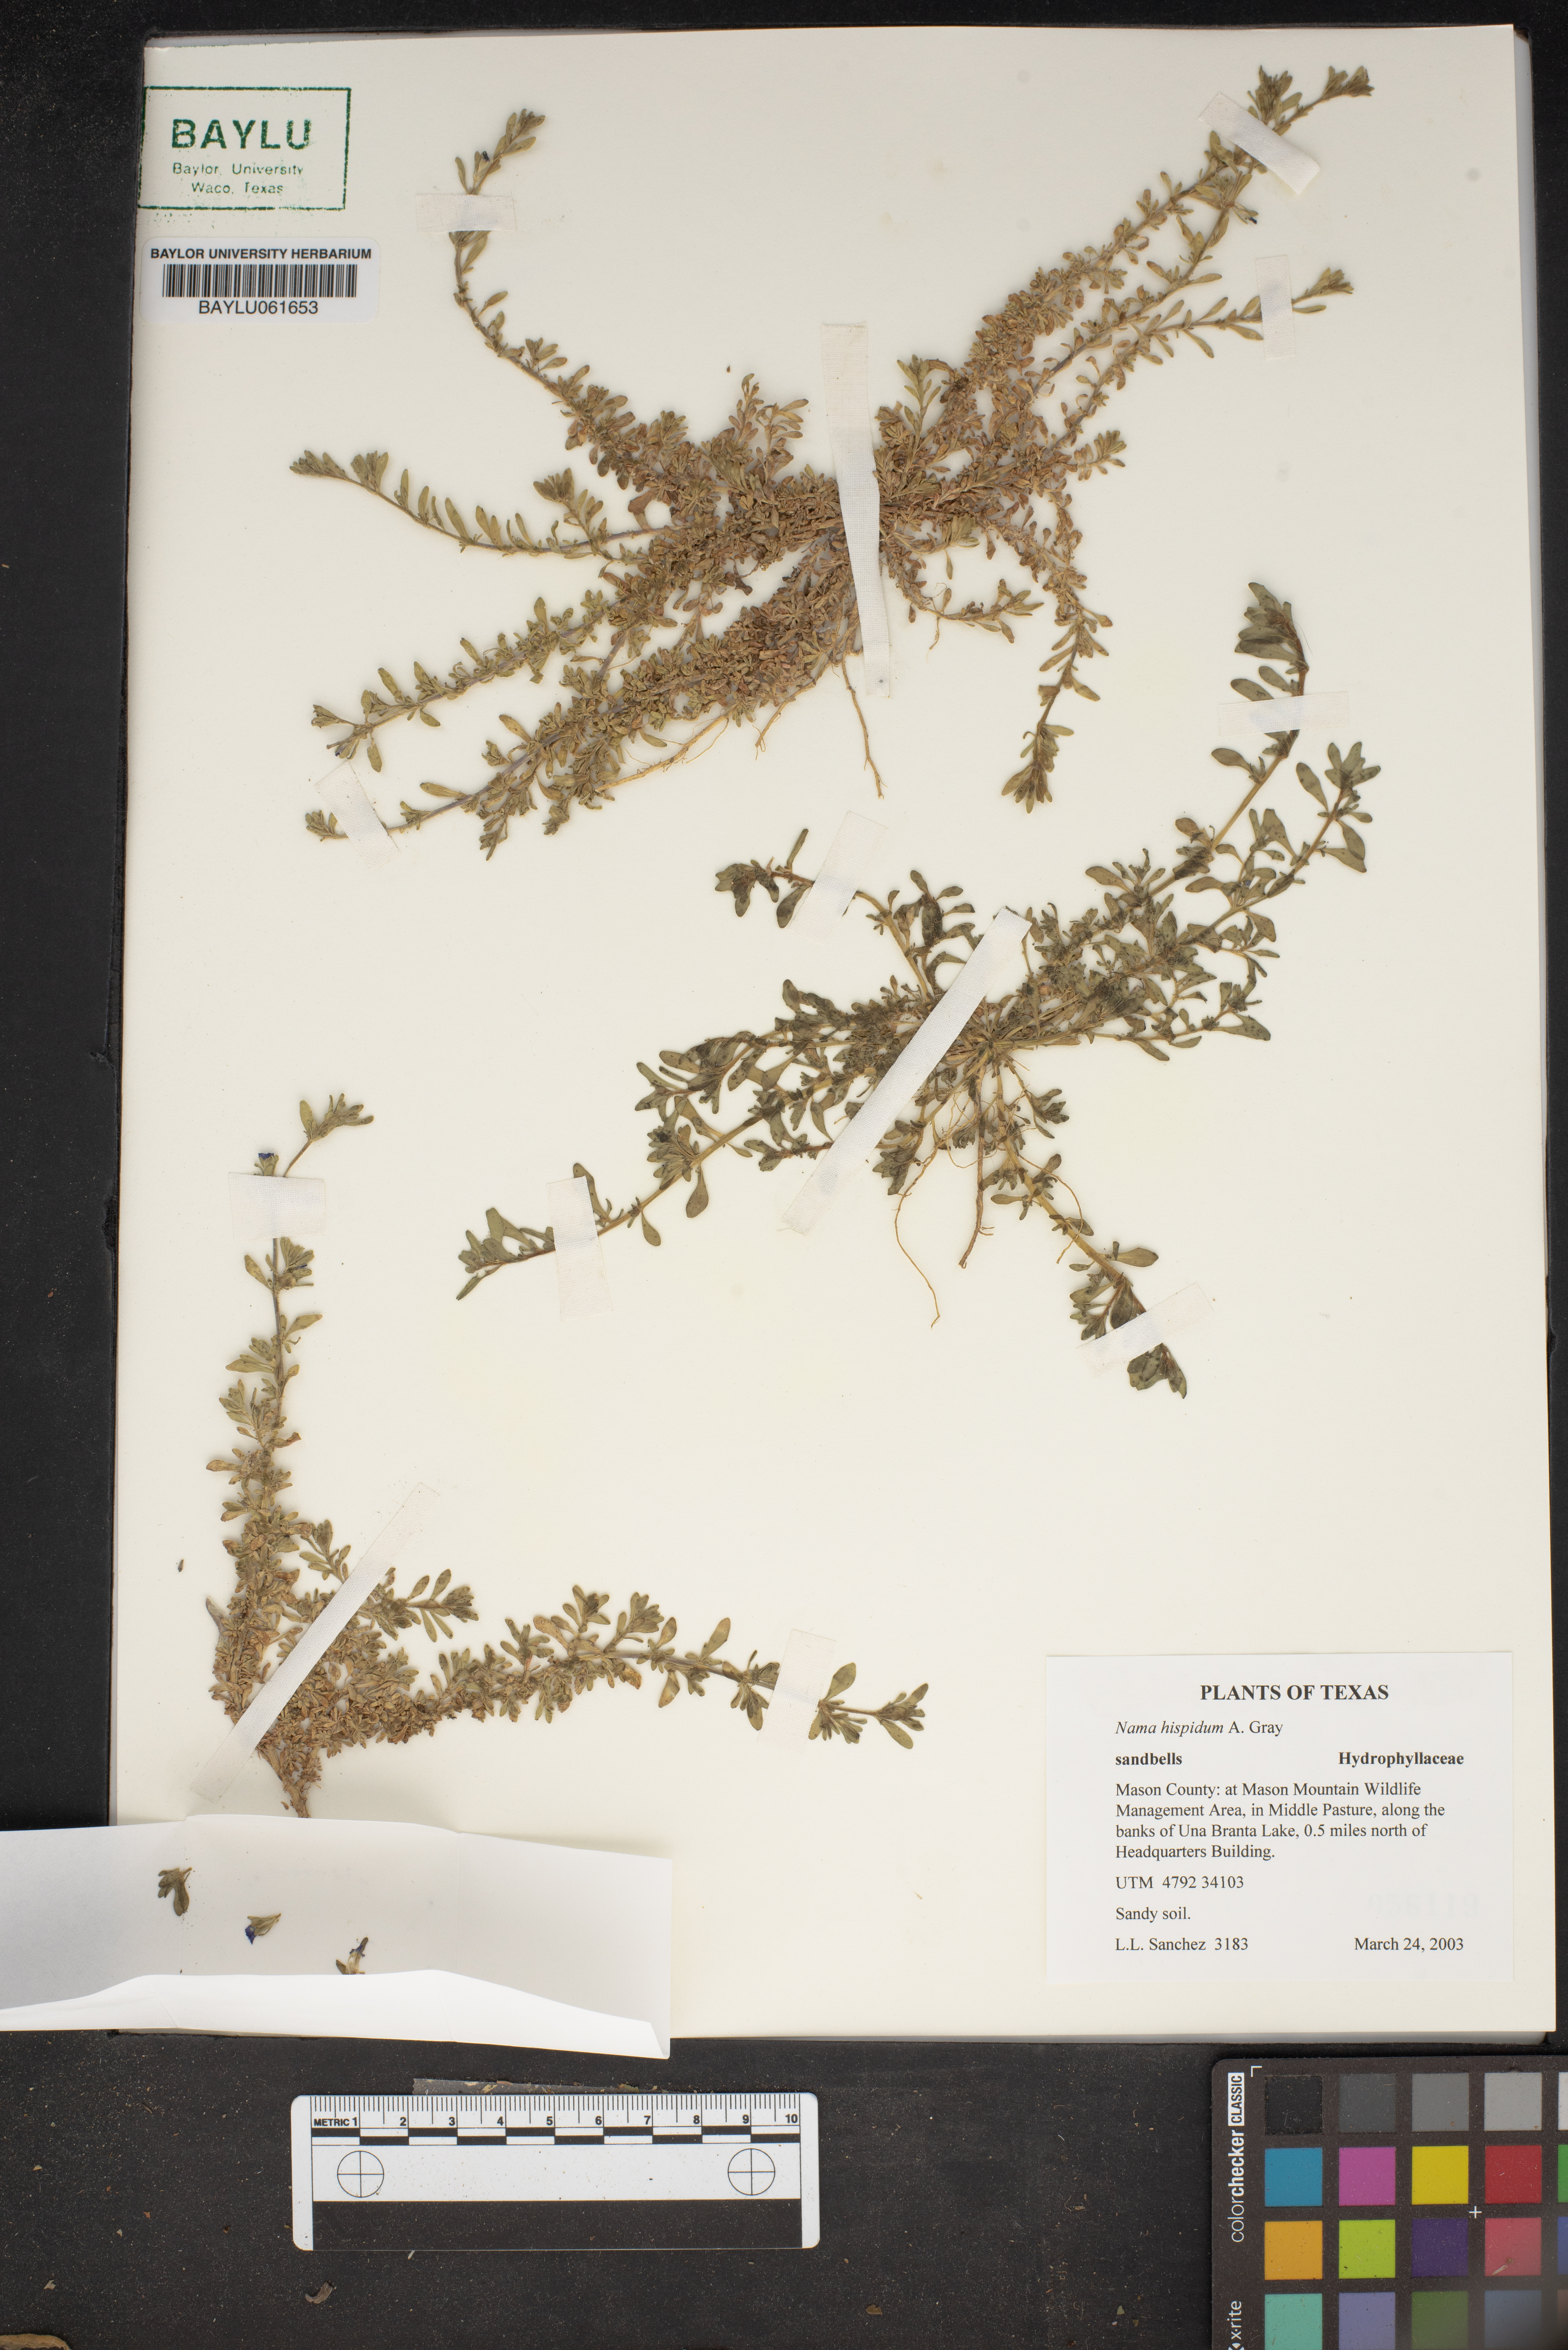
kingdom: Plantae
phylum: Tracheophyta
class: Magnoliopsida
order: Boraginales
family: Namaceae
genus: Nama
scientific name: Nama hispida
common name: Bristly nama
